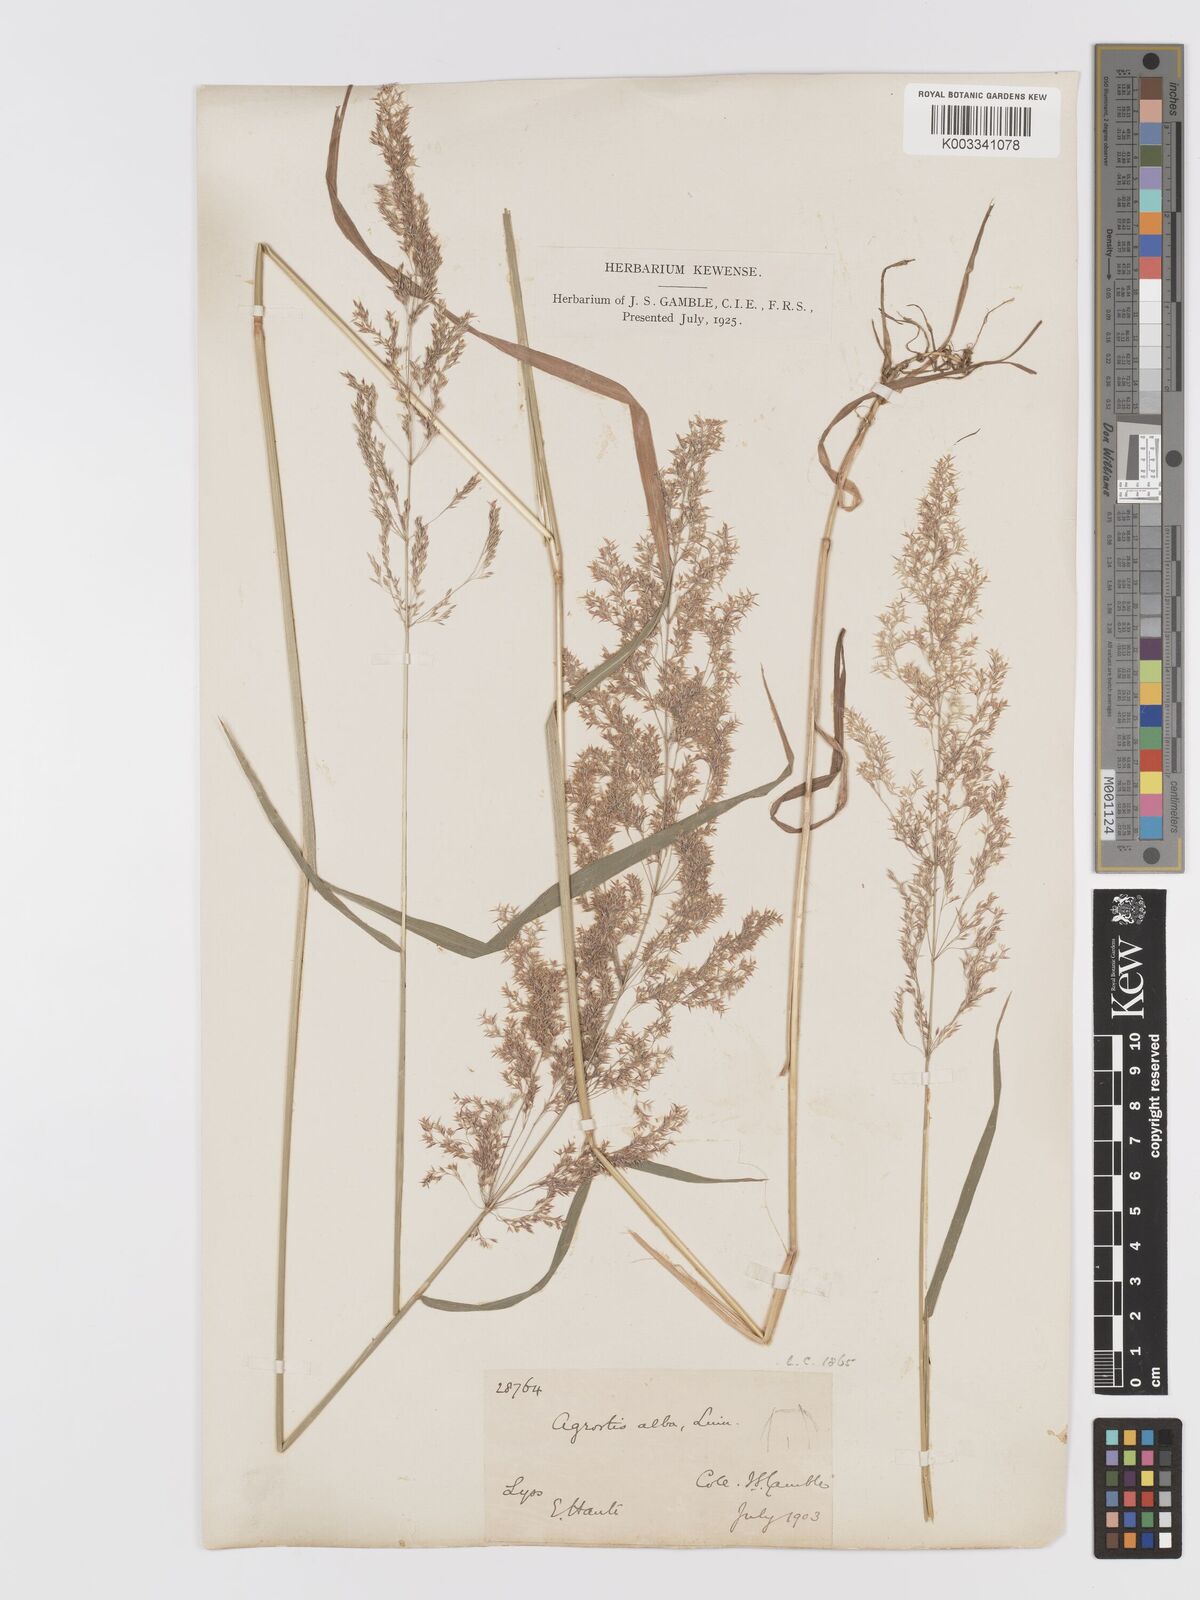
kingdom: Plantae
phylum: Tracheophyta
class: Liliopsida
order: Poales
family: Poaceae
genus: Agrostis
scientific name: Agrostis gigantea
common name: Black bent
